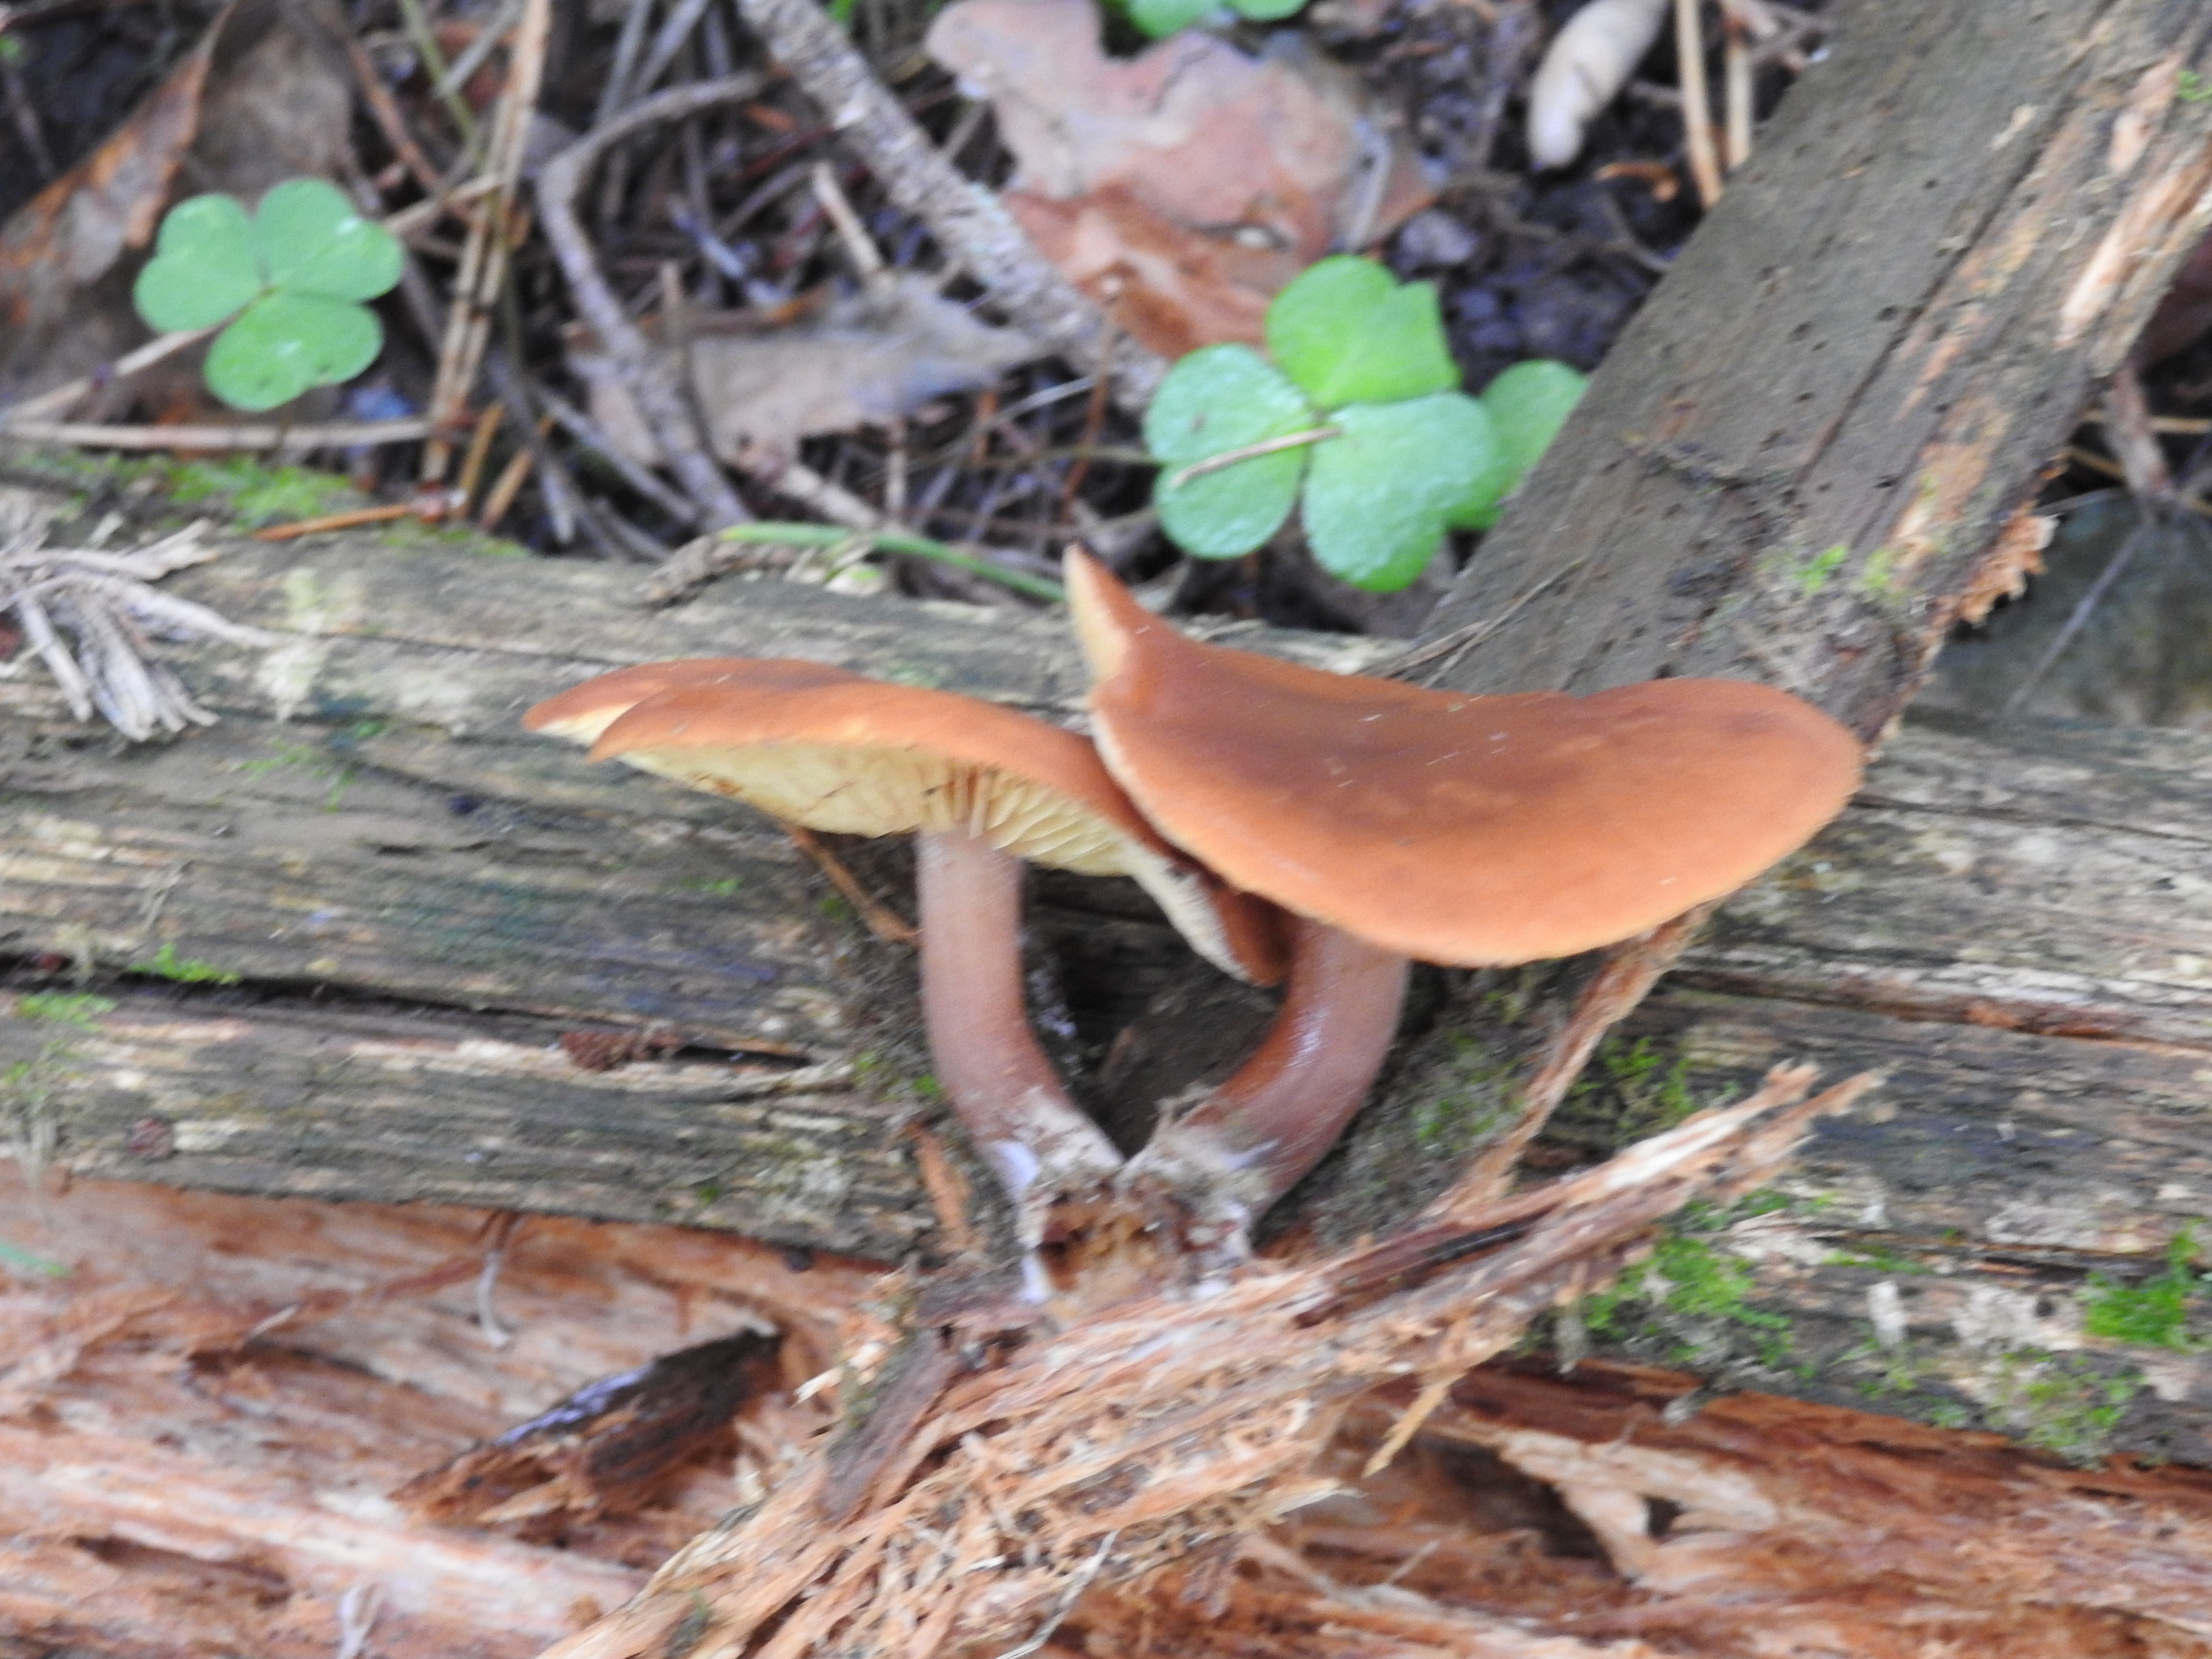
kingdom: Fungi
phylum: Basidiomycota
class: Agaricomycetes
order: Agaricales
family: Hymenogastraceae
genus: Gymnopilus
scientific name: Gymnopilus picreus
